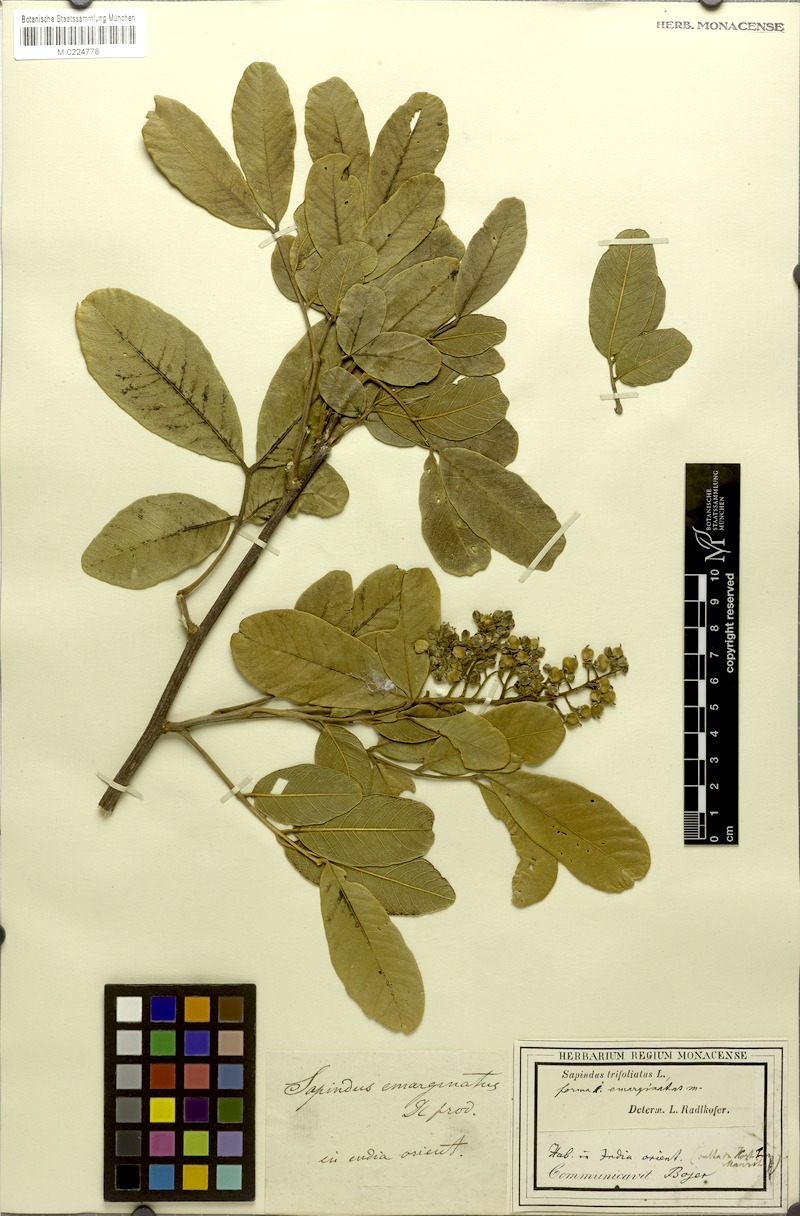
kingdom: Plantae
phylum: Tracheophyta
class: Magnoliopsida
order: Sapindales
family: Sapindaceae
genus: Sapindus
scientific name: Sapindus trifoliatus
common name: Three-leaf soapberry
